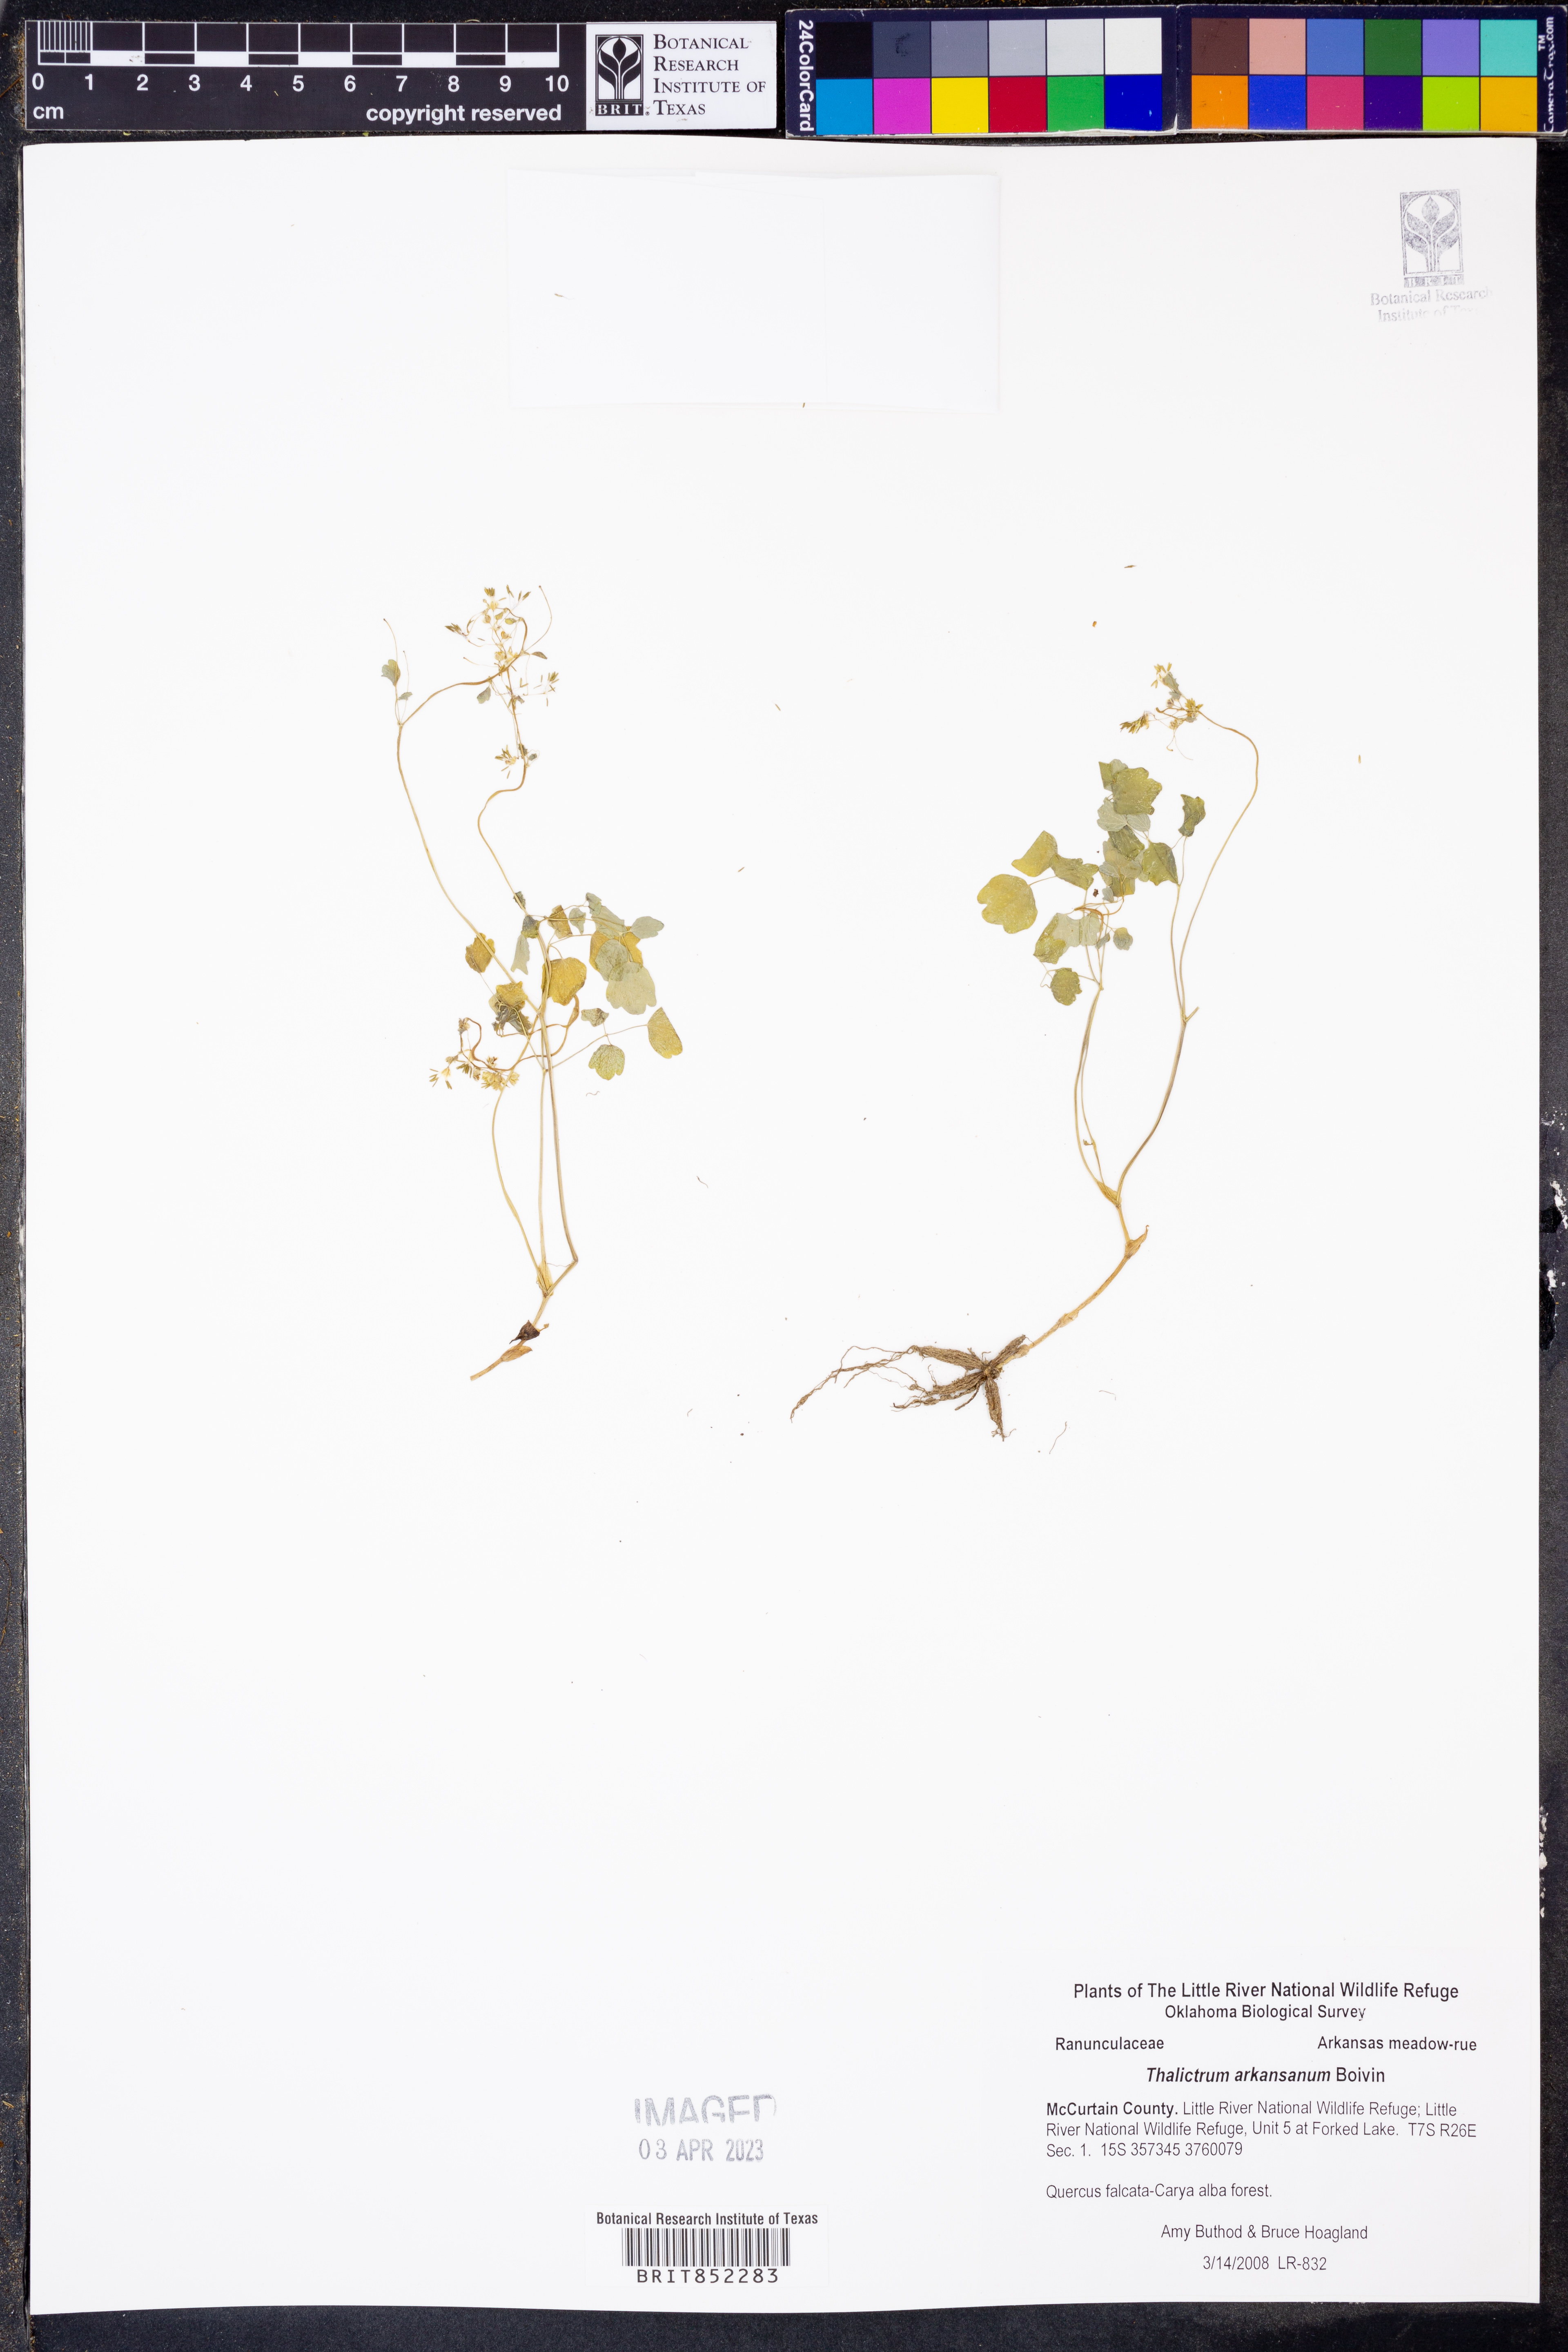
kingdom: Plantae
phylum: Tracheophyta
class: Magnoliopsida
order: Ranunculales
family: Ranunculaceae
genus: Thalictrum
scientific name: Thalictrum arkansanum
